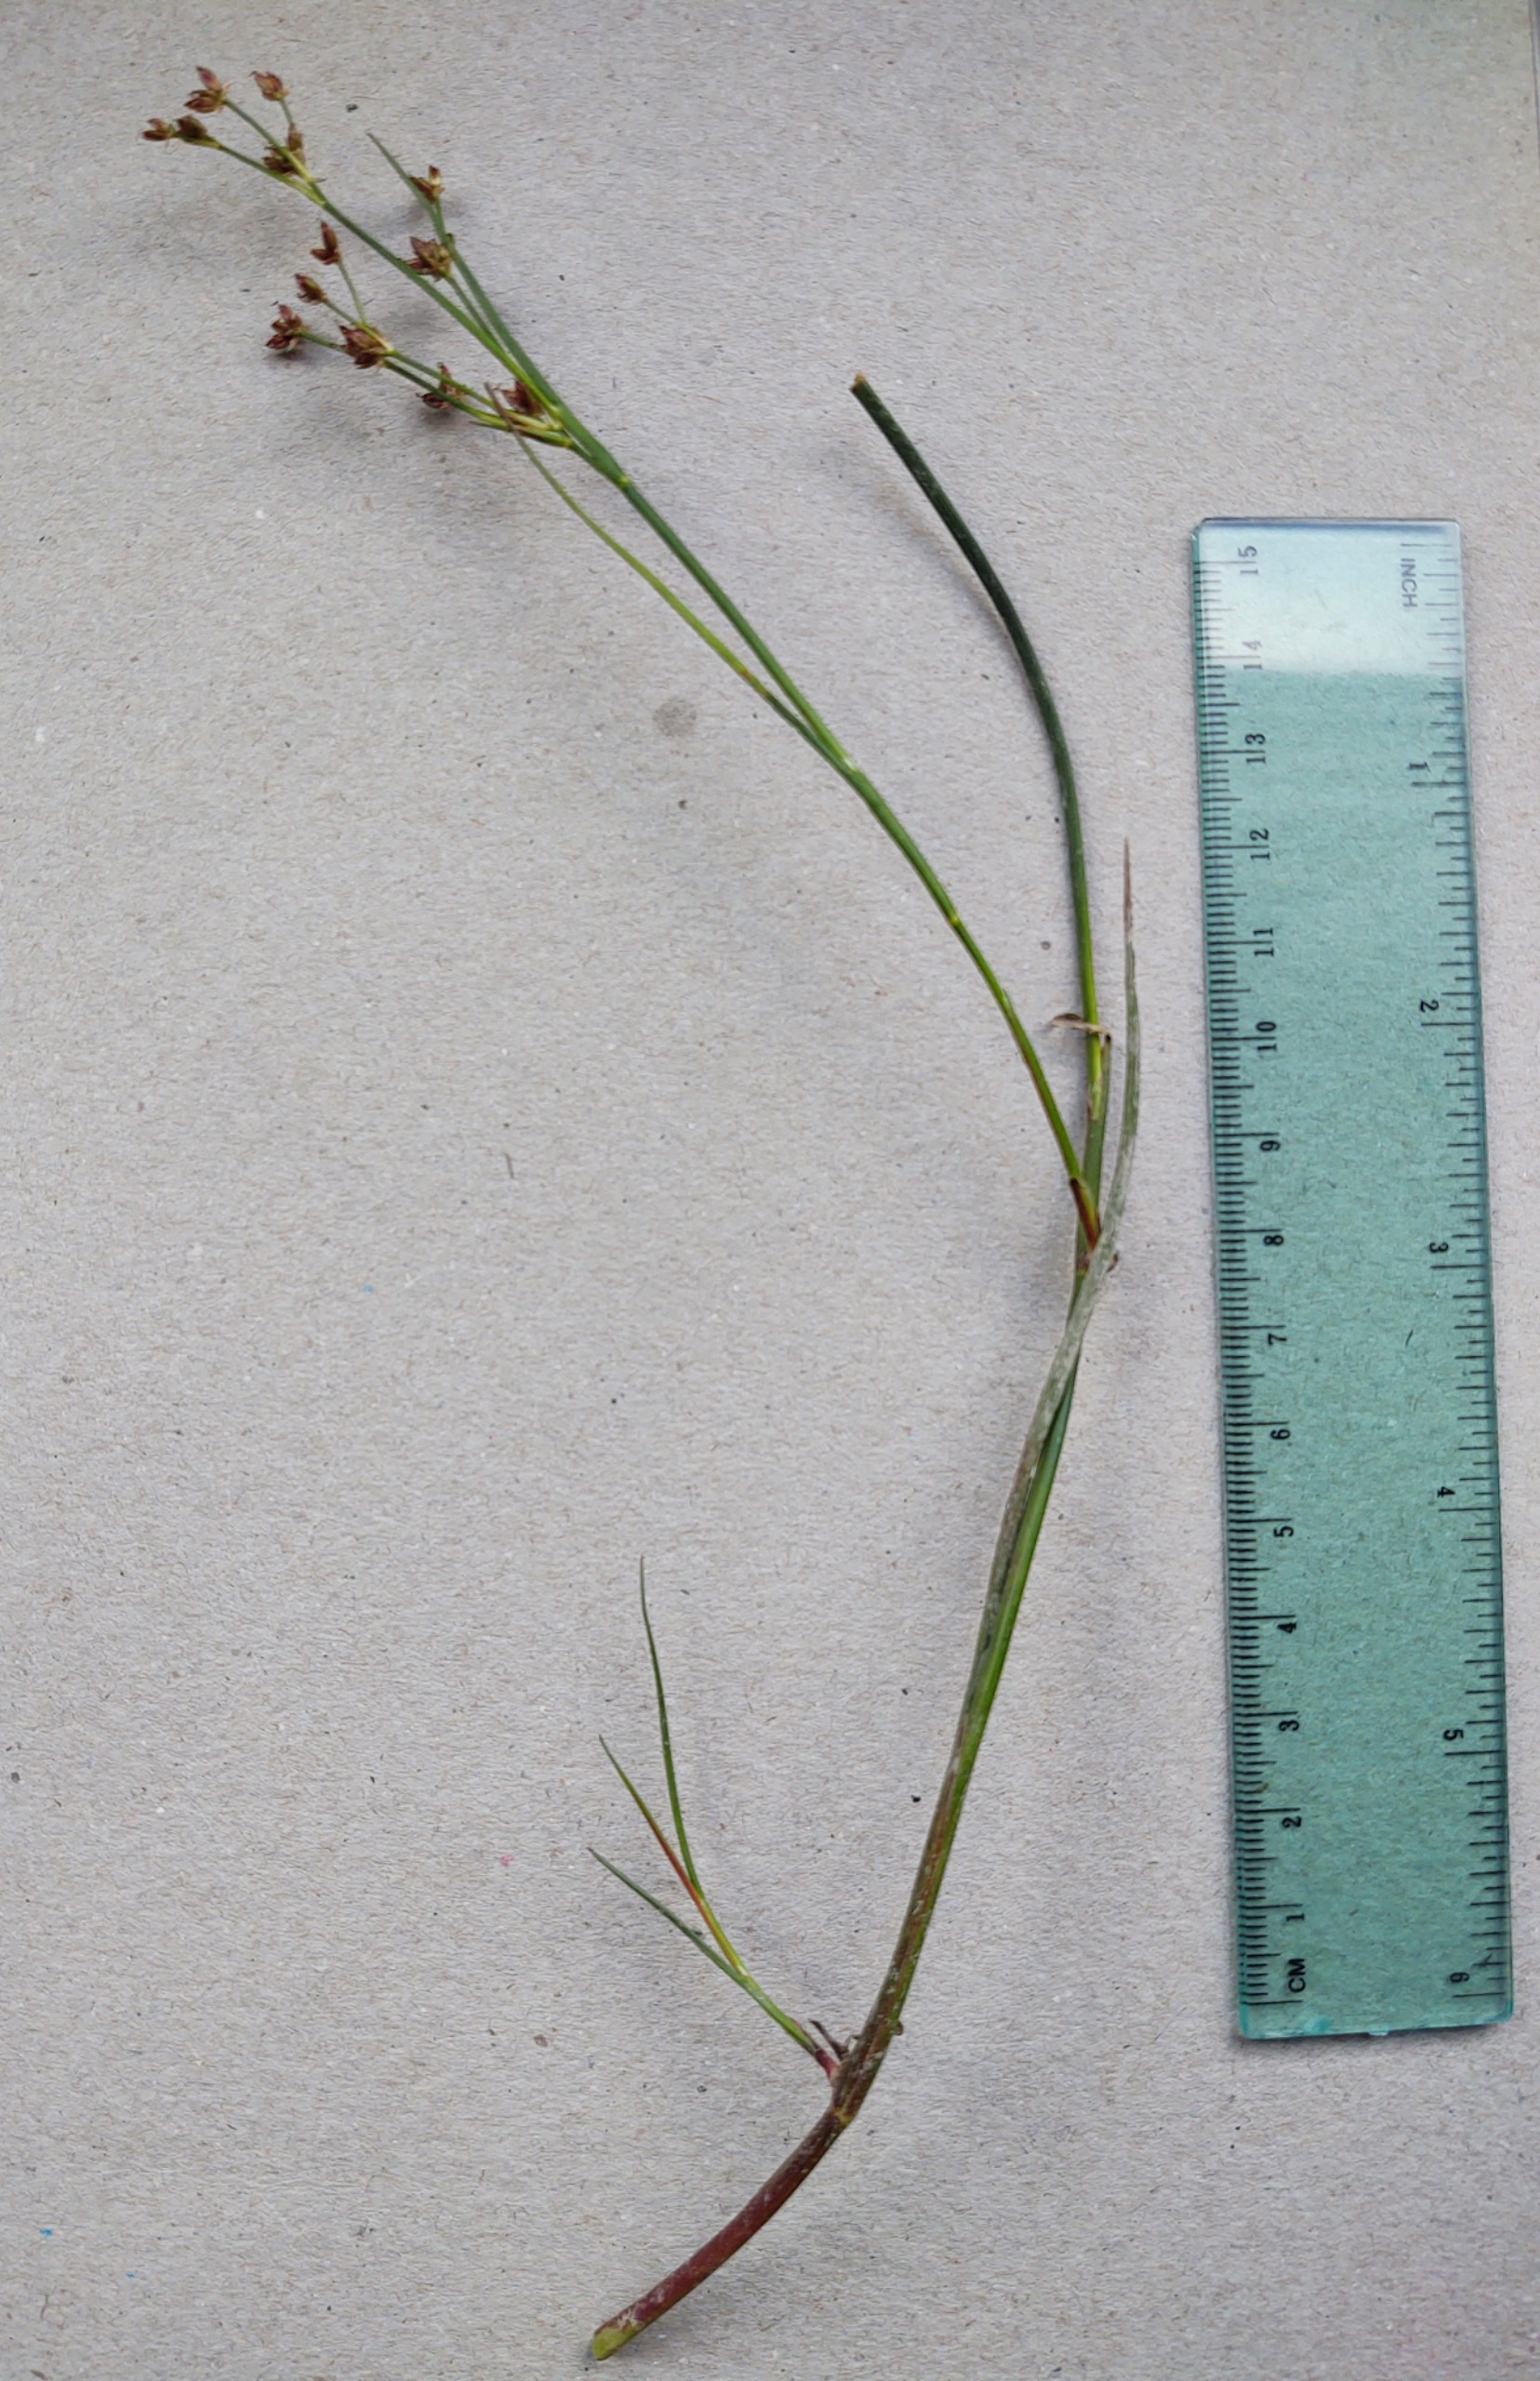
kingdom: Plantae
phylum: Tracheophyta
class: Liliopsida
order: Poales
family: Juncaceae
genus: Juncus
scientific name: Juncus articulatus
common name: Glanskapslet siv
